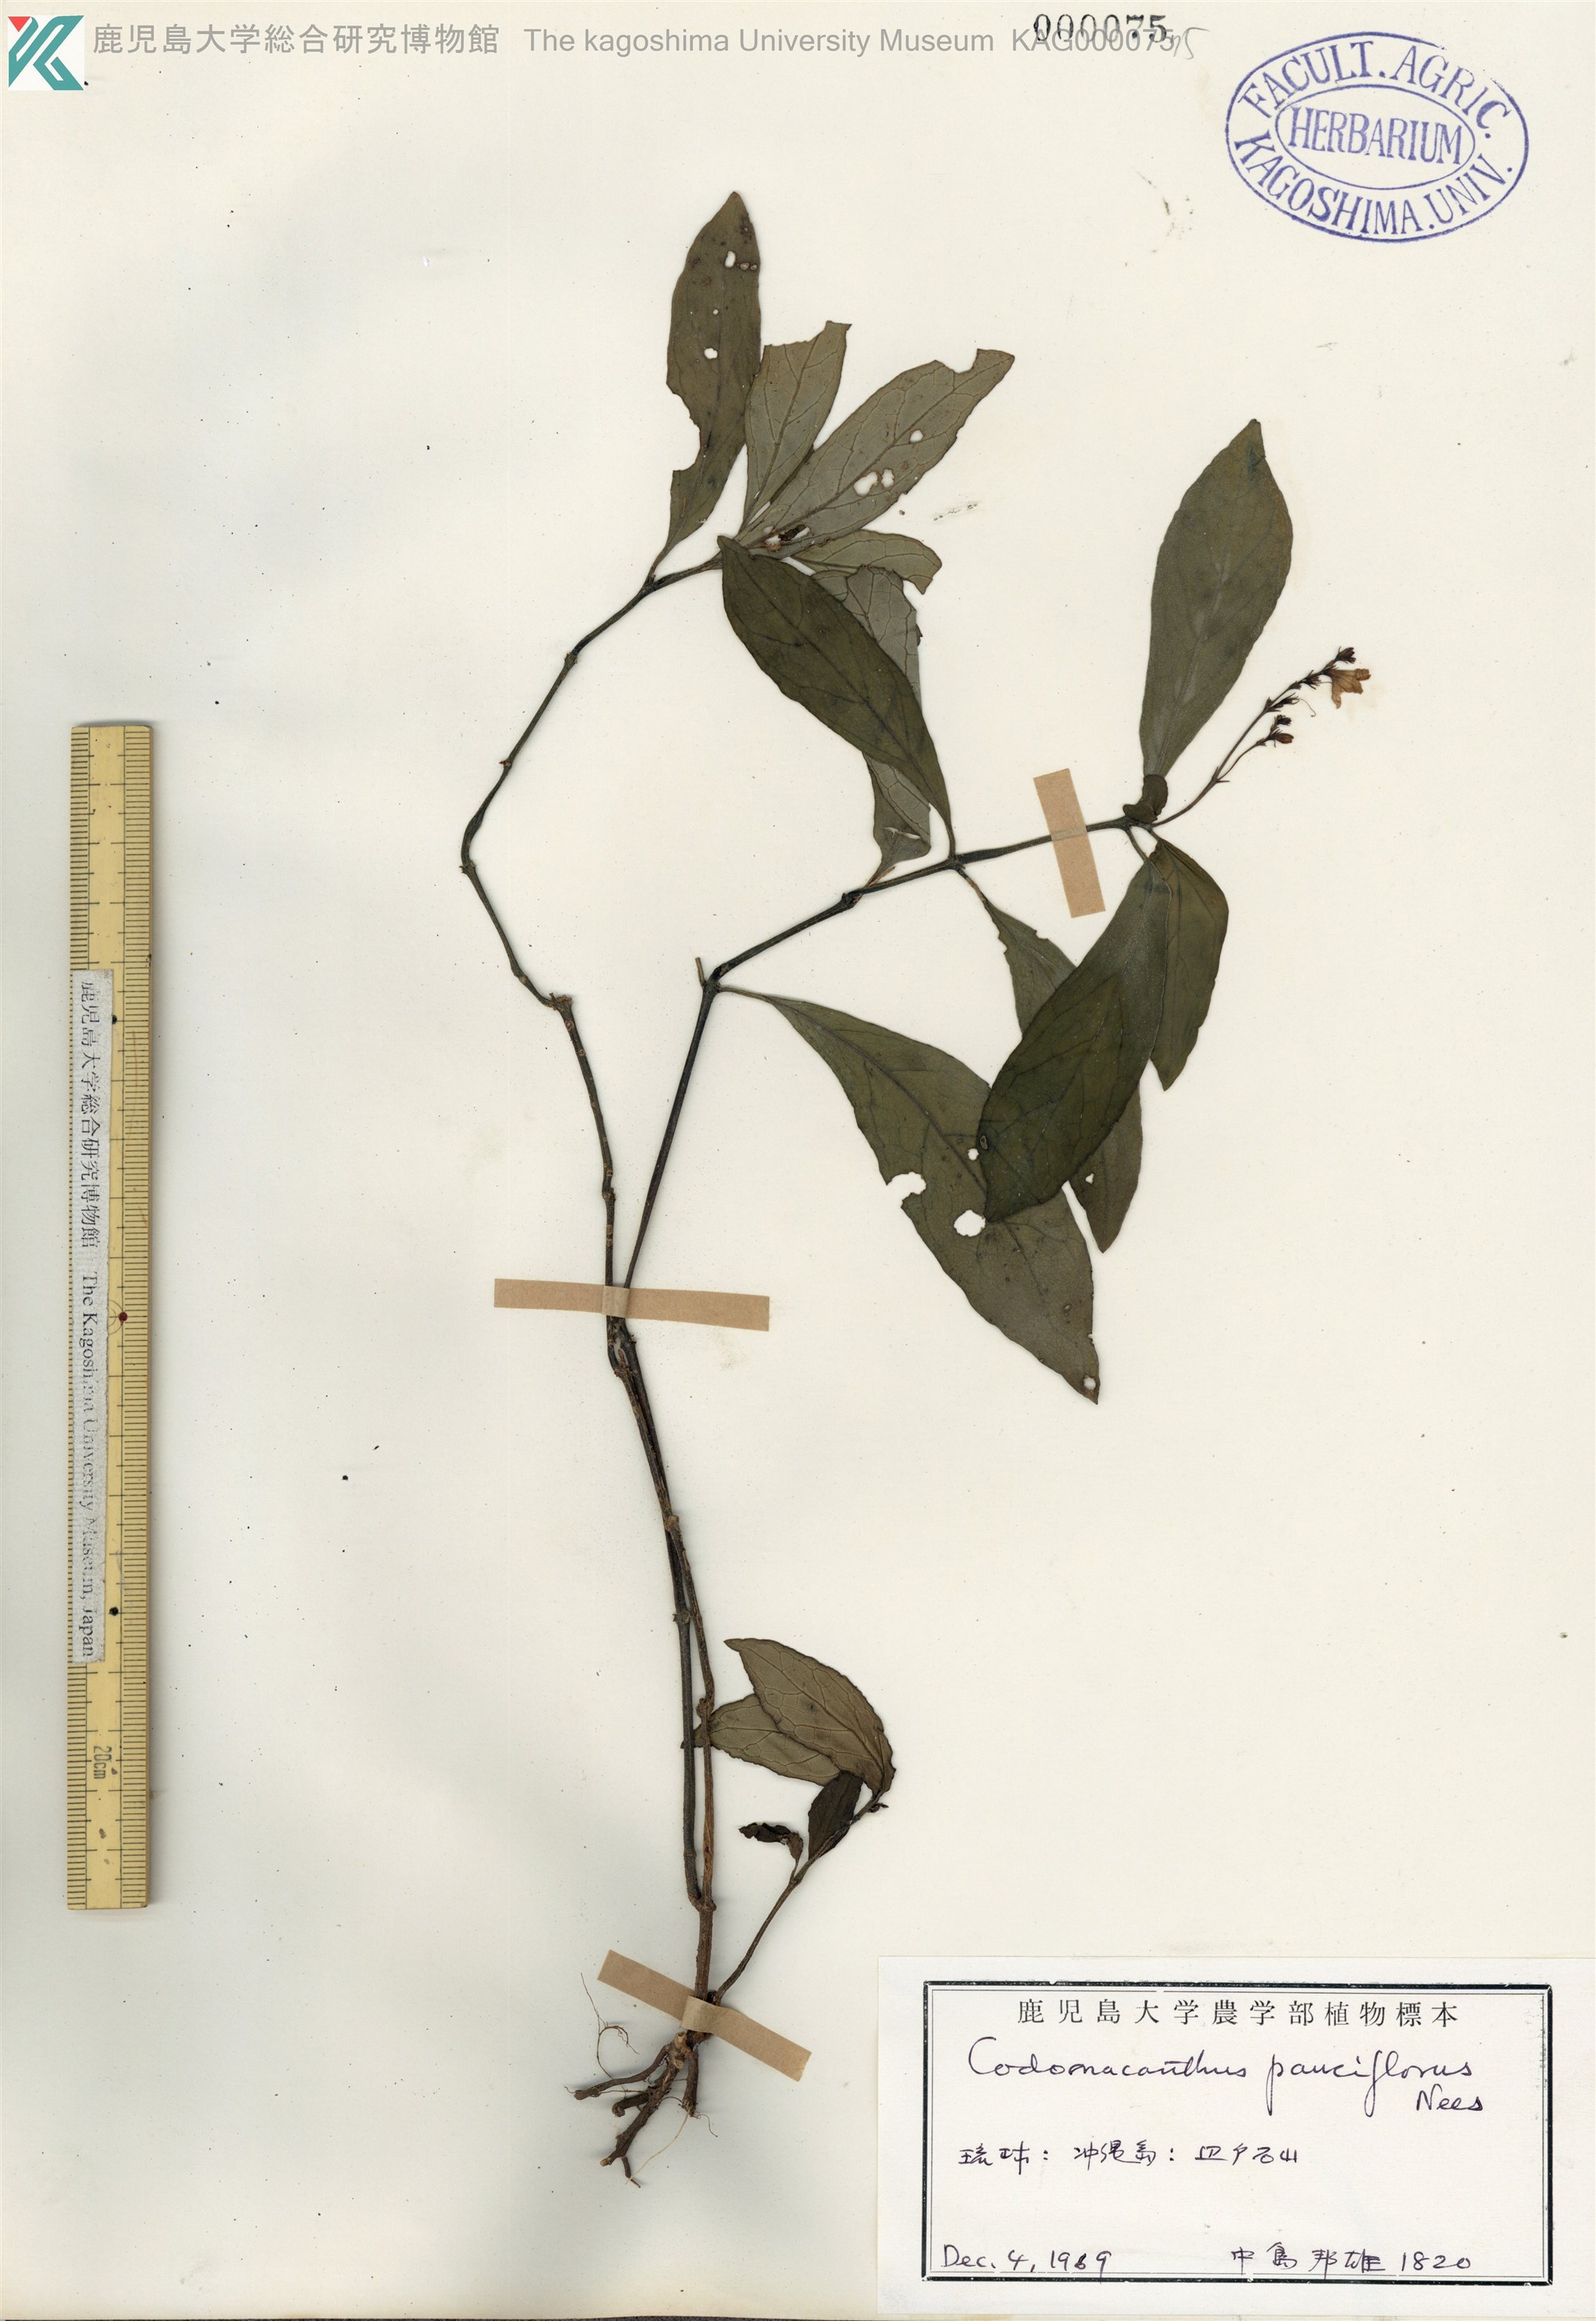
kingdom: Plantae
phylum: Tracheophyta
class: Magnoliopsida
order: Lamiales
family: Acanthaceae
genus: Codonacanthus
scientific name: Codonacanthus pauciflorus
